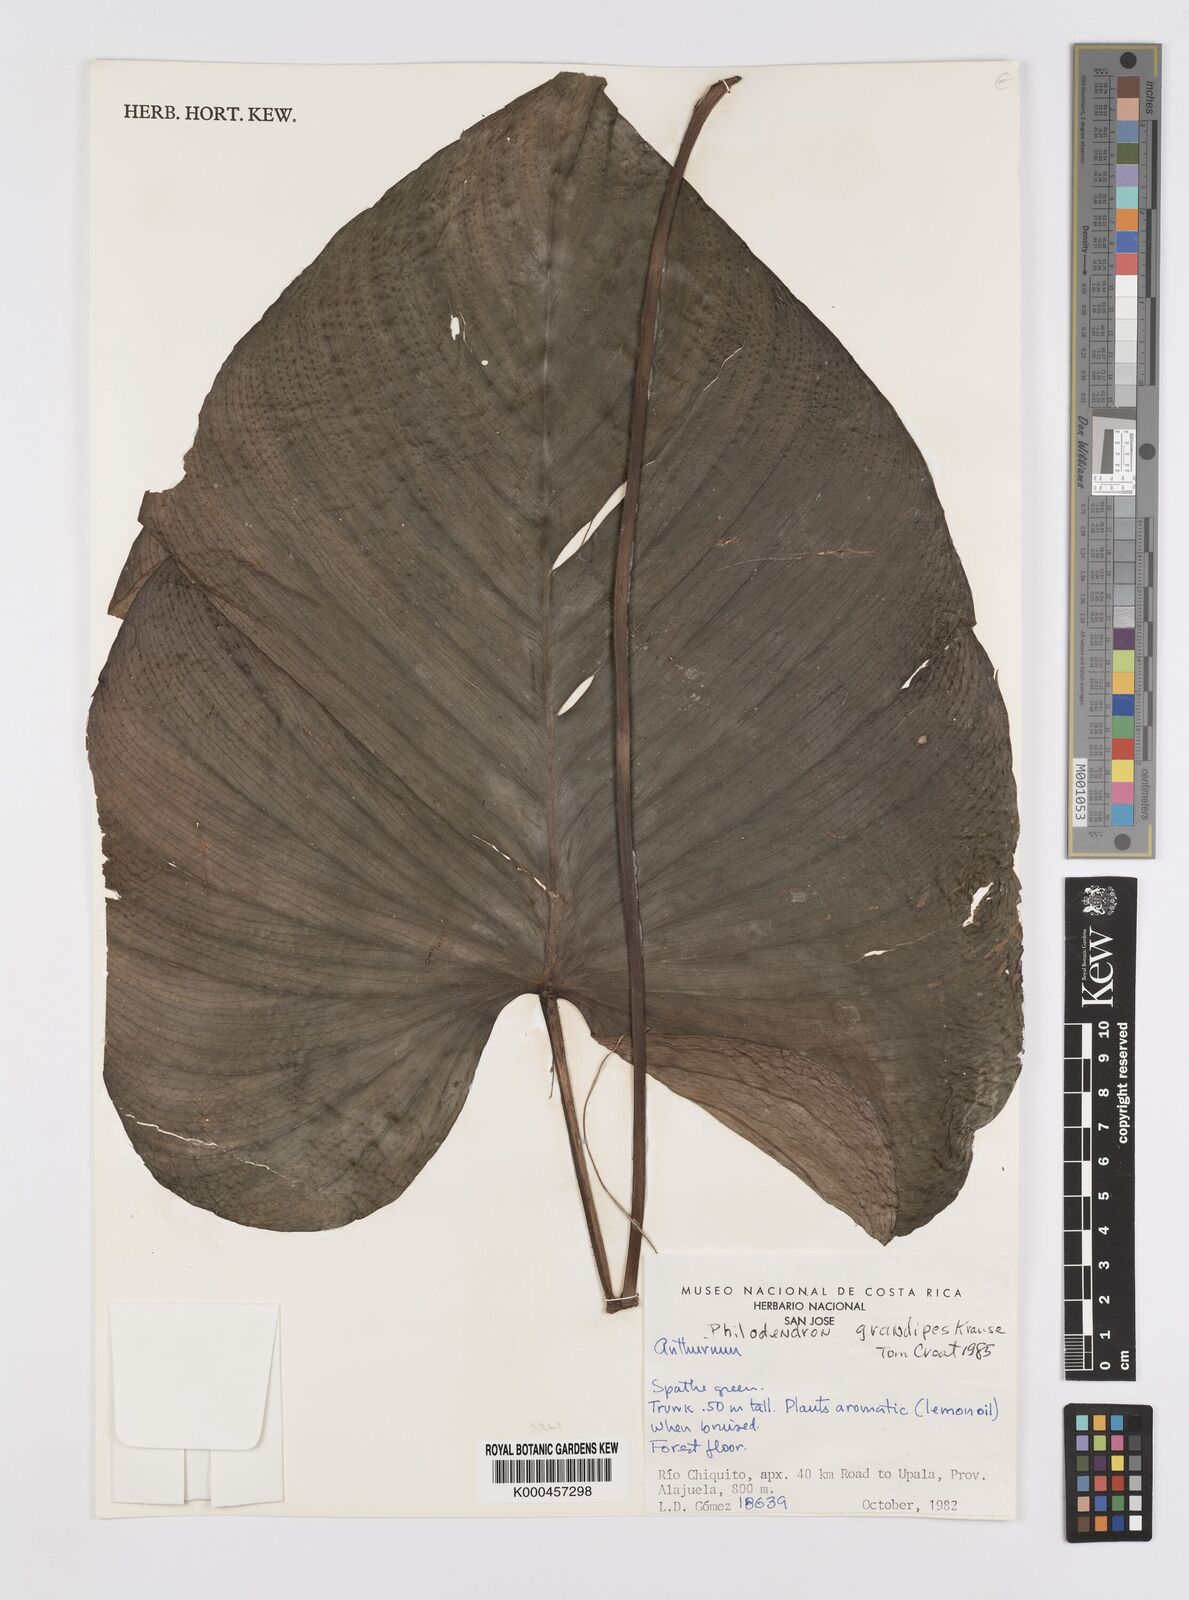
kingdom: Plantae
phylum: Tracheophyta
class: Liliopsida
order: Alismatales
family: Araceae
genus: Philodendron
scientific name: Philodendron grandipes
